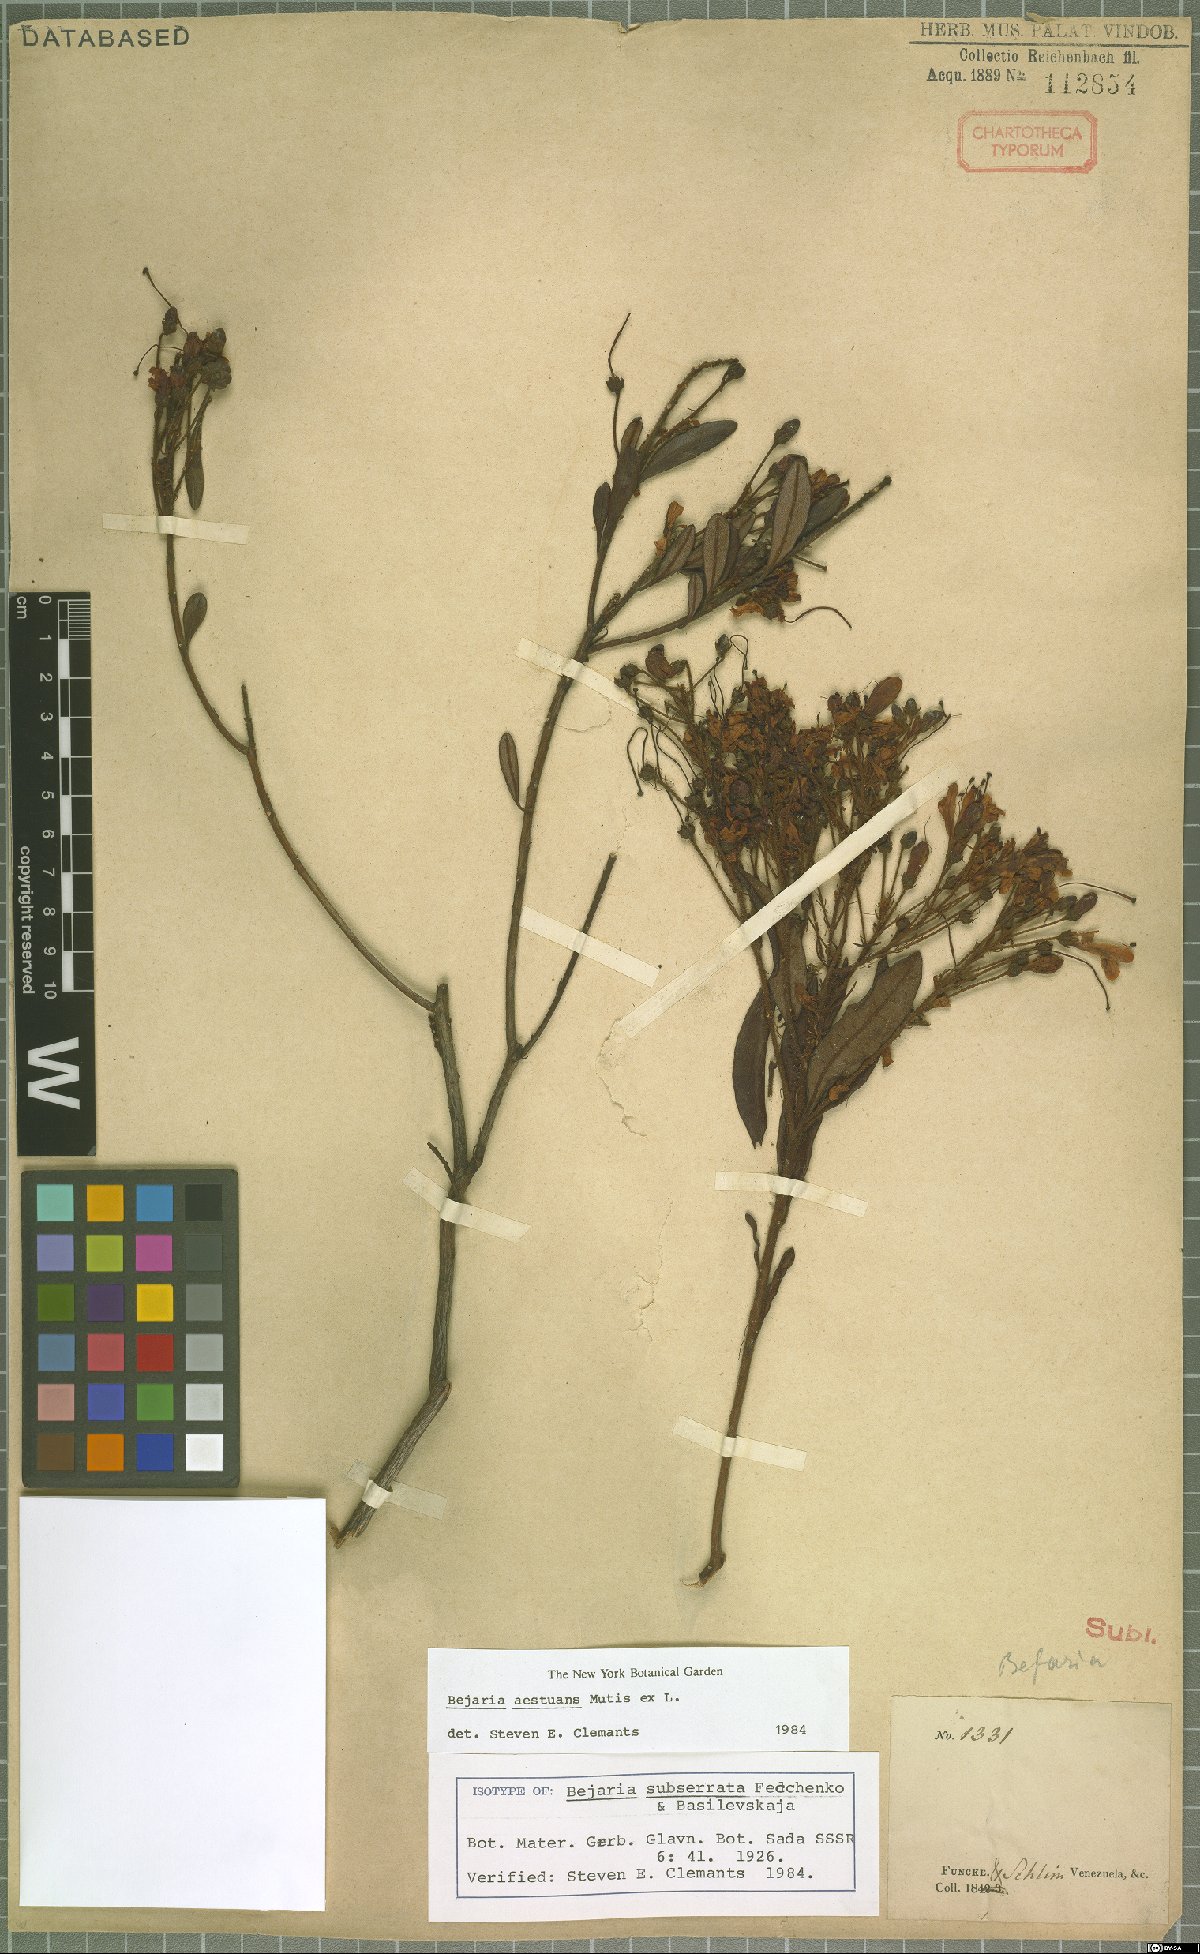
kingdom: Plantae
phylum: Tracheophyta
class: Magnoliopsida
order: Ericales
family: Ericaceae
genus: Bejaria
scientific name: Bejaria aestuans
